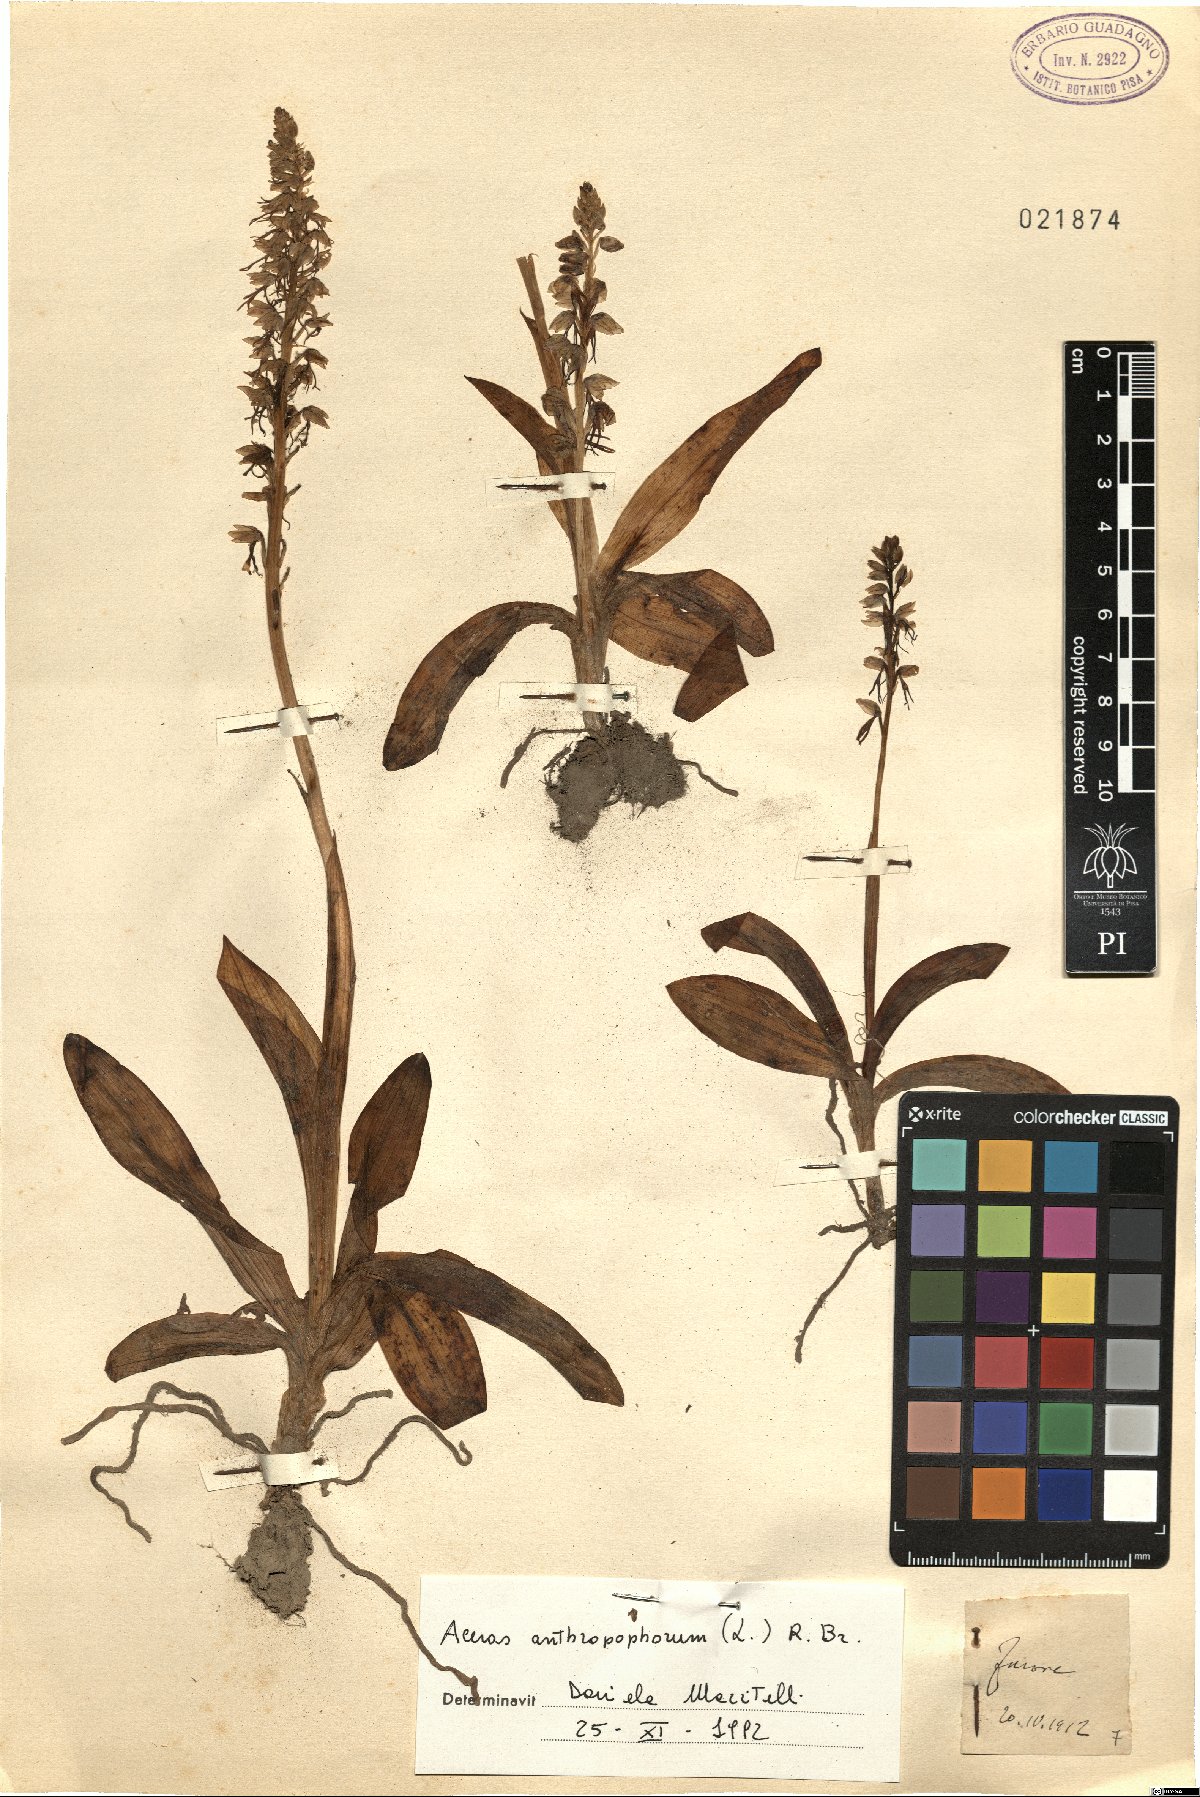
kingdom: Plantae
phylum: Tracheophyta
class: Liliopsida
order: Asparagales
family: Orchidaceae
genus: Orchis
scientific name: Orchis anthropophora
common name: Man orchid
